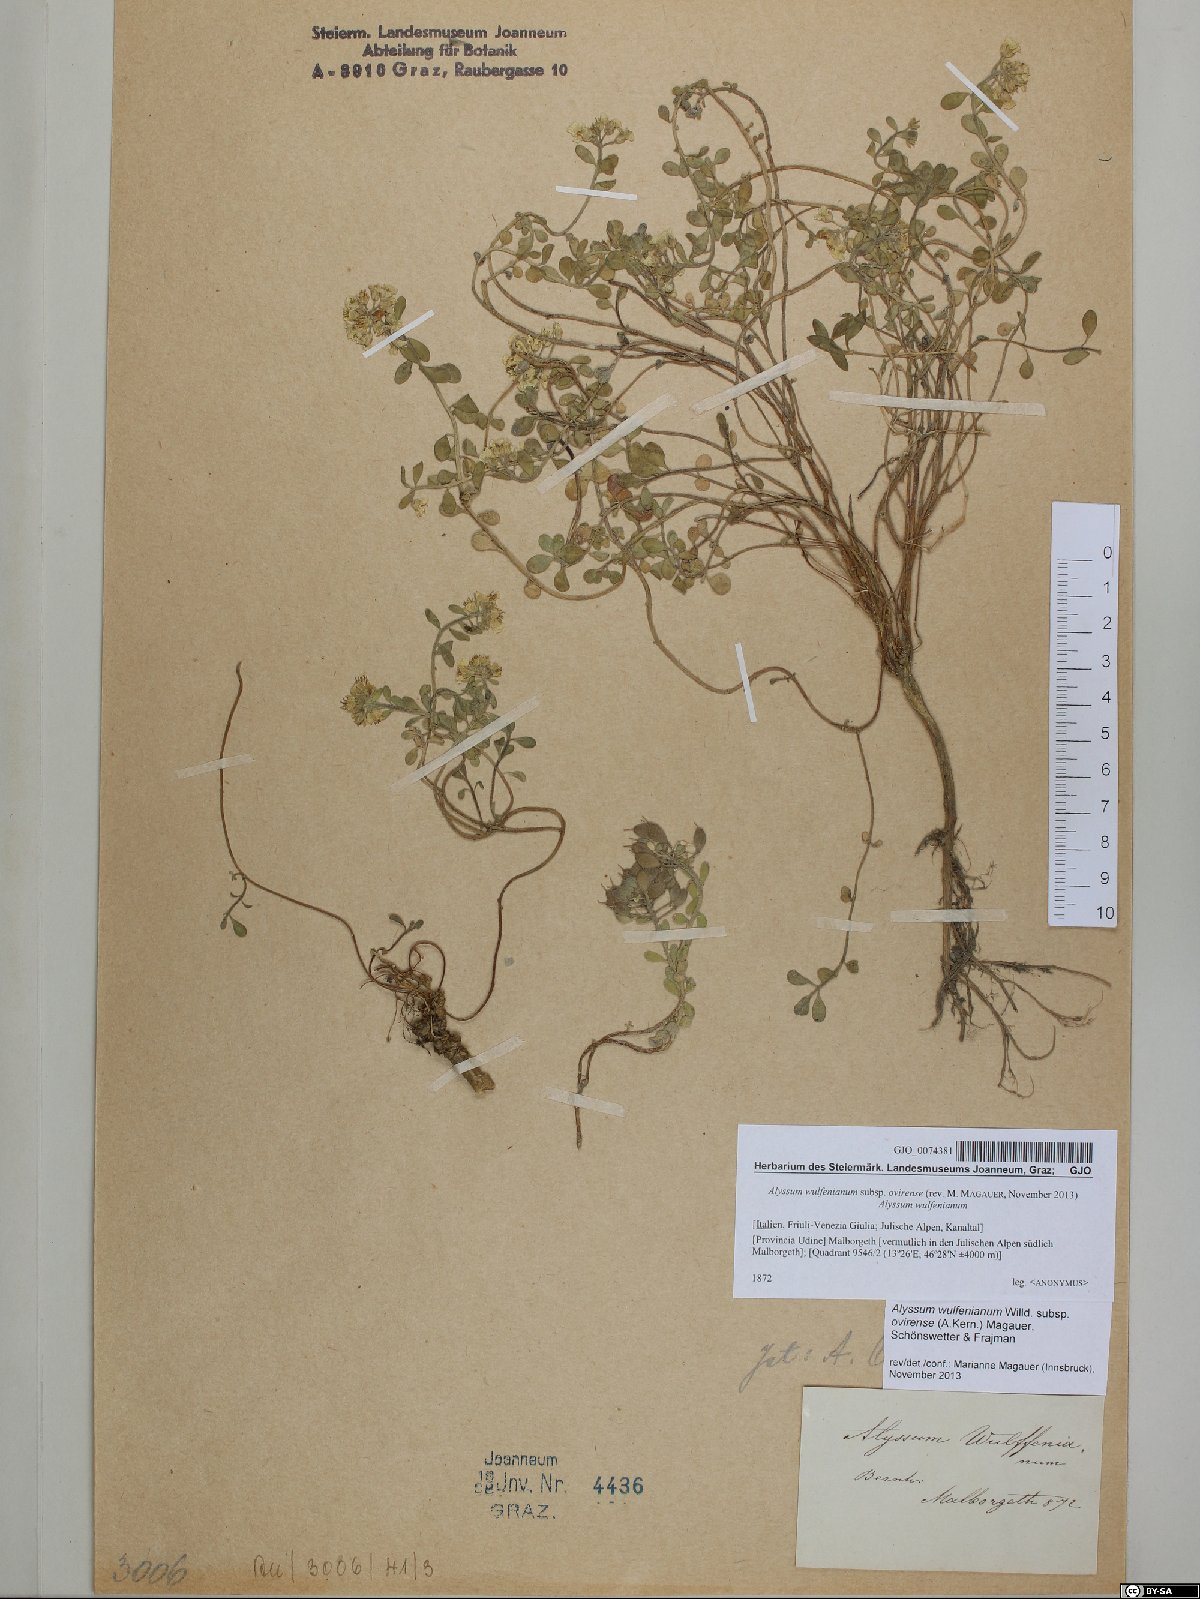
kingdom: Plantae
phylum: Tracheophyta
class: Magnoliopsida
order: Brassicales
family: Brassicaceae
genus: Alyssum
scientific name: Alyssum wulfenianum
